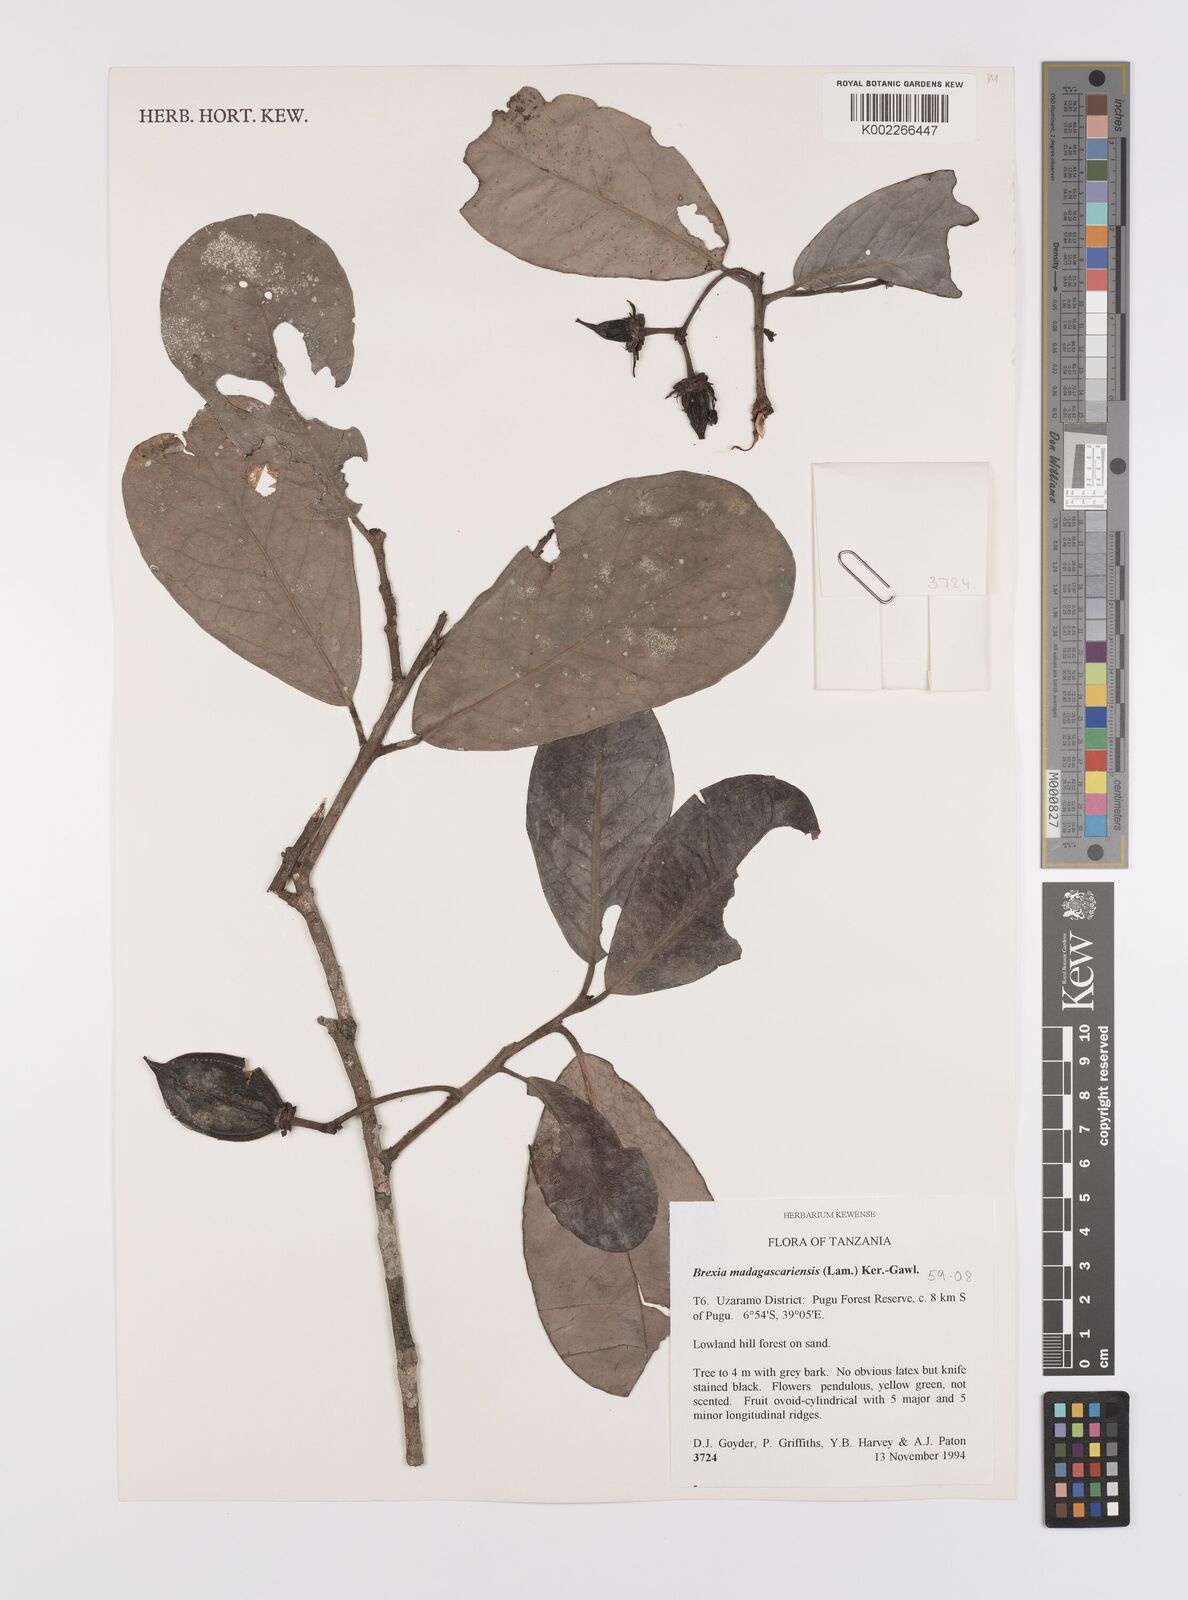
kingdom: Plantae
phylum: Tracheophyta
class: Magnoliopsida
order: Celastrales
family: Celastraceae
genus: Brexia
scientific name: Brexia madagascariensis
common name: Brexia
